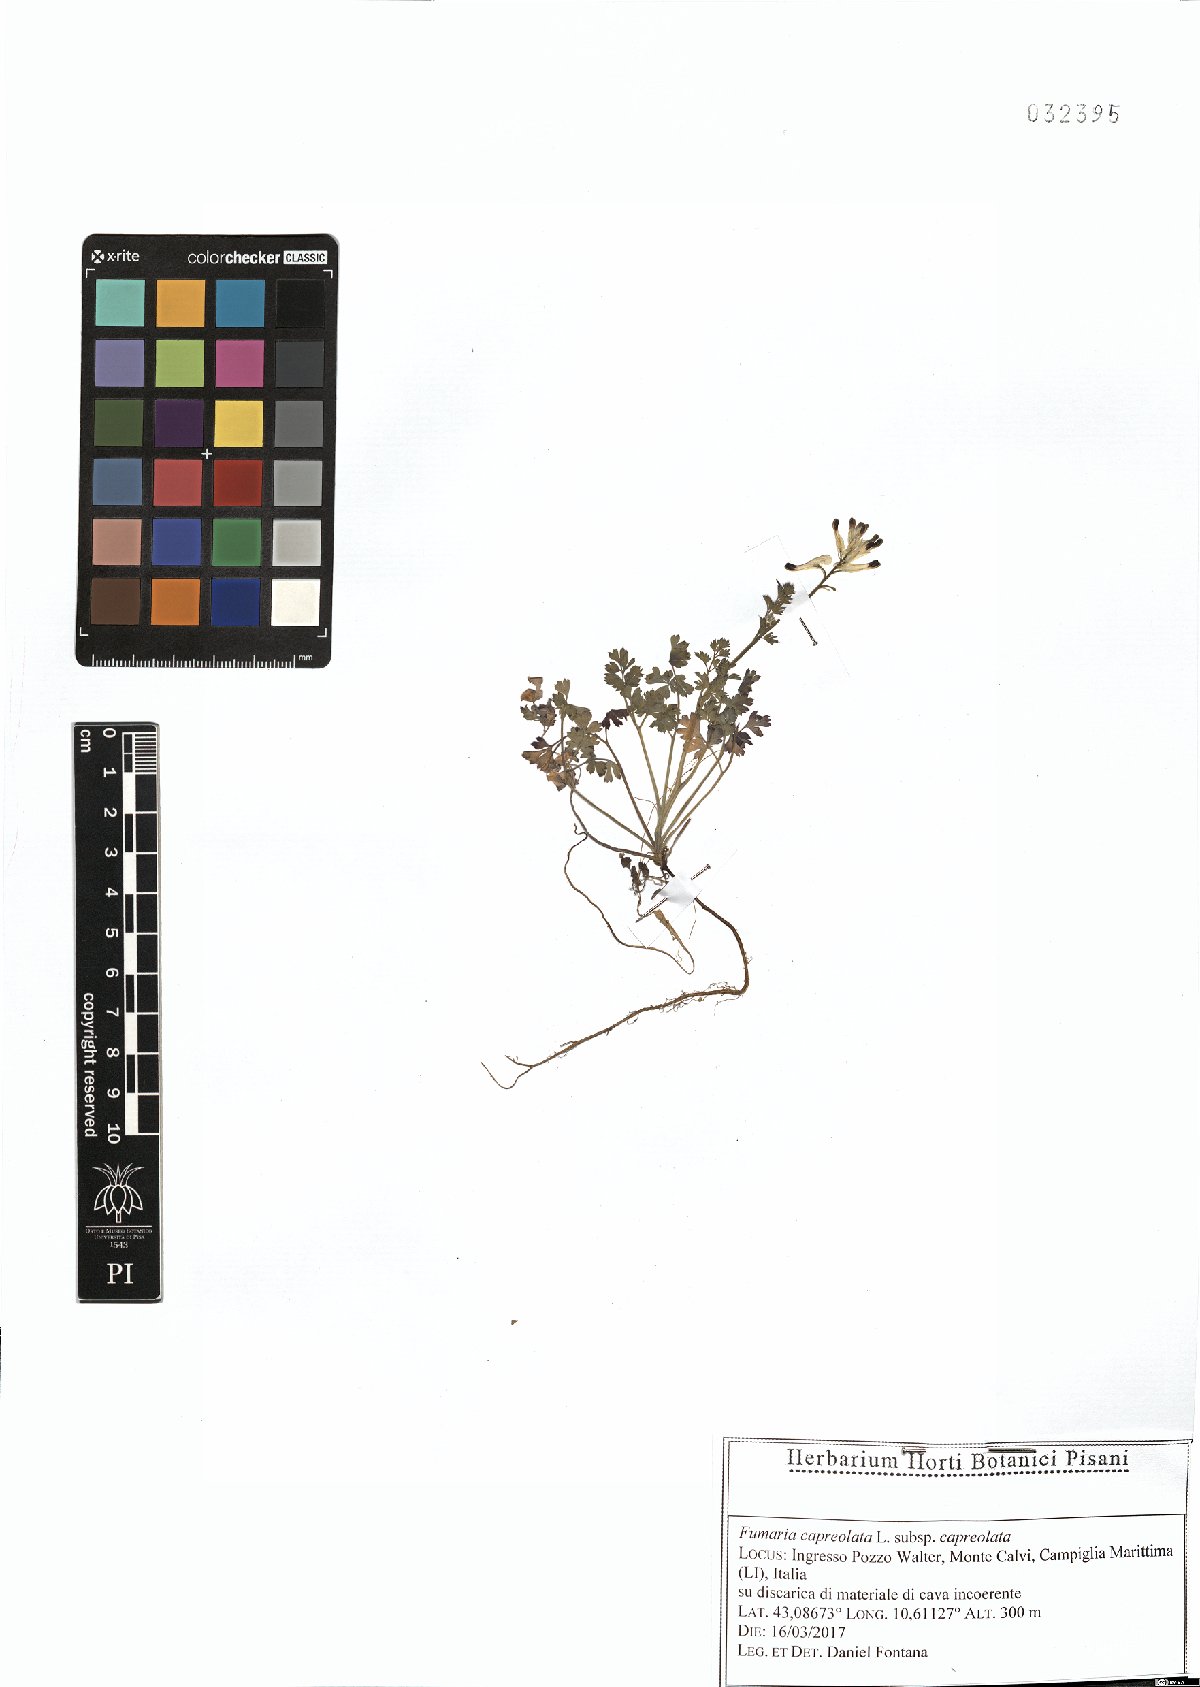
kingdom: Plantae
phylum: Tracheophyta
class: Magnoliopsida
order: Ranunculales
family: Papaveraceae
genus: Fumaria
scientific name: Fumaria capreolata
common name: White ramping-fumitory
